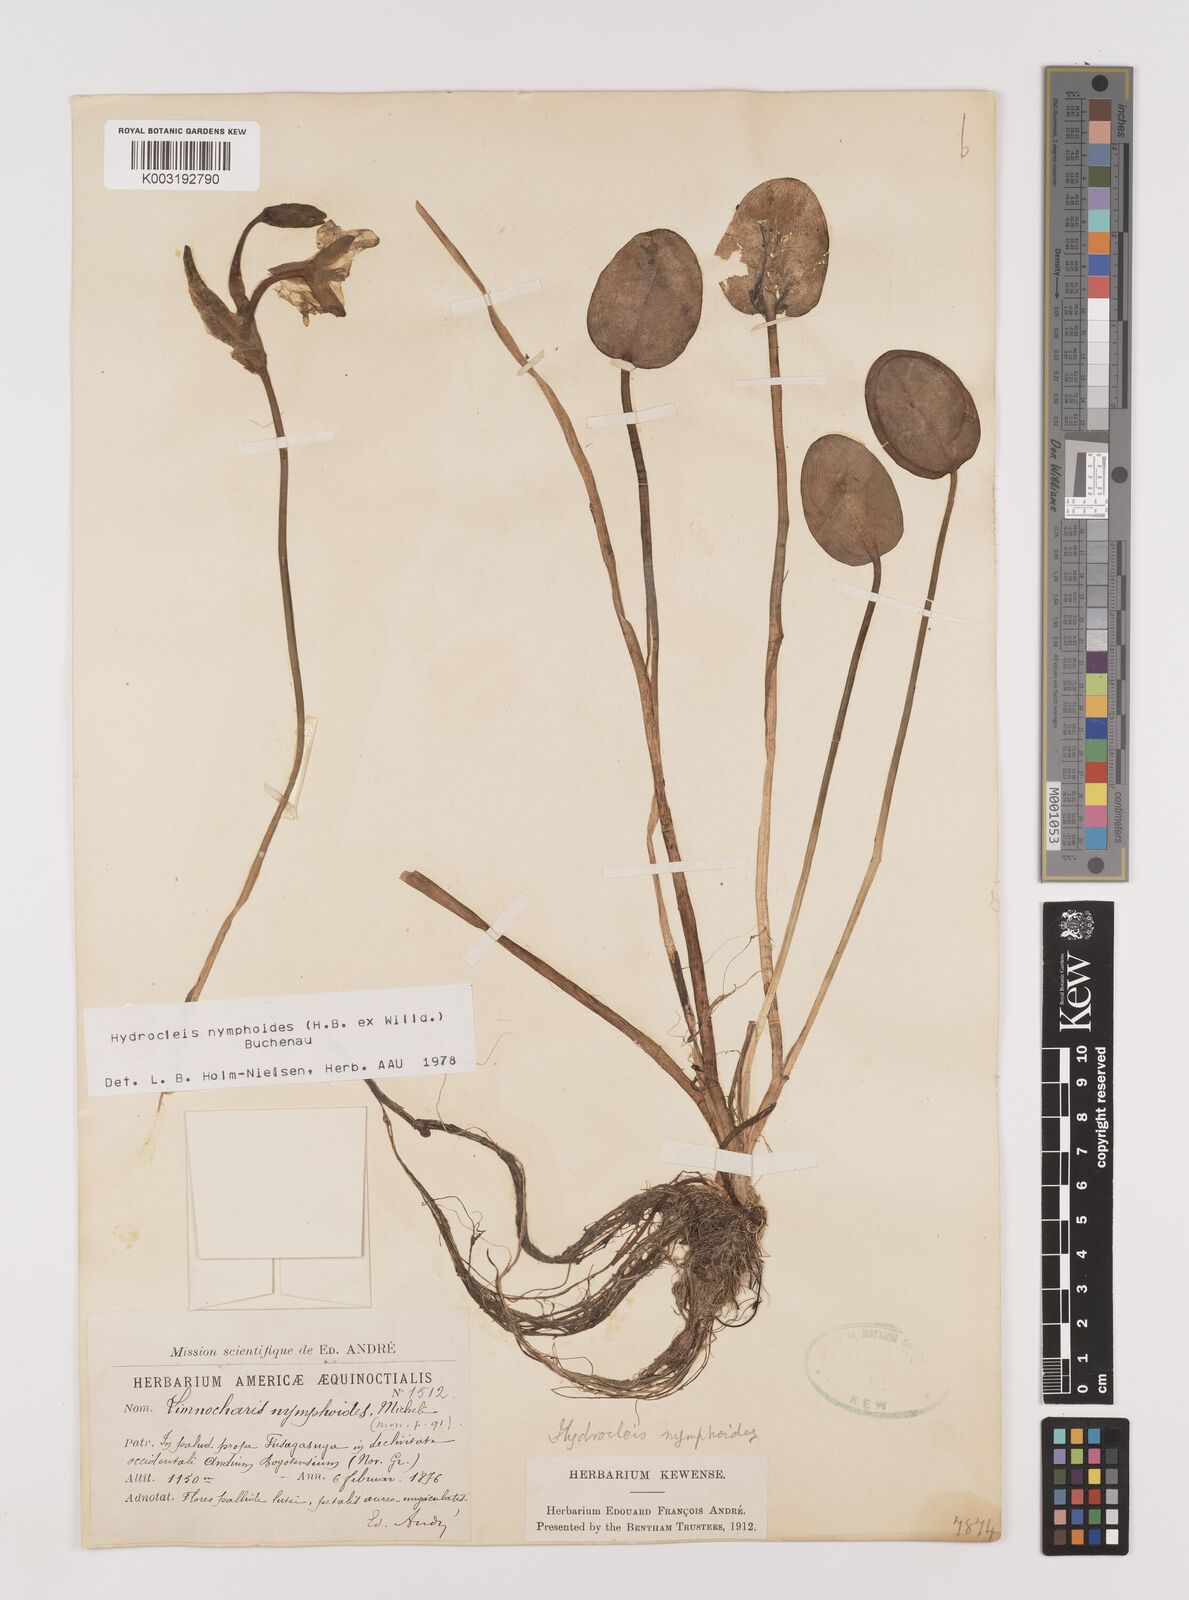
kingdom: Plantae
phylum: Tracheophyta
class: Liliopsida
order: Alismatales
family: Alismataceae
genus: Hydrocleys
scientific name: Hydrocleys nymphoides
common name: Water-poppy
